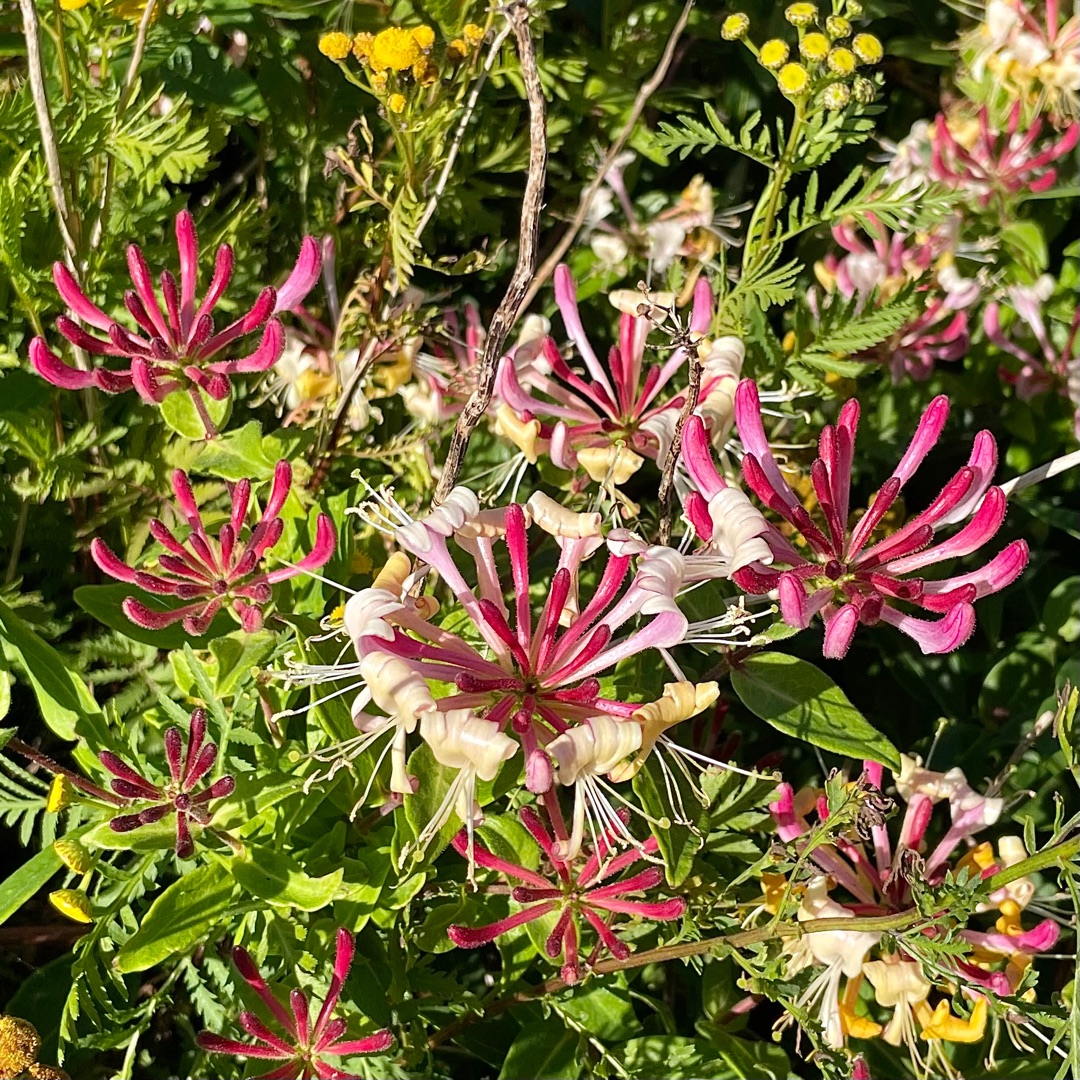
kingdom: Plantae
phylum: Tracheophyta
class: Magnoliopsida
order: Dipsacales
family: Caprifoliaceae
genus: Lonicera
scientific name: Lonicera periclymenum
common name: Almindelig gedeblad
